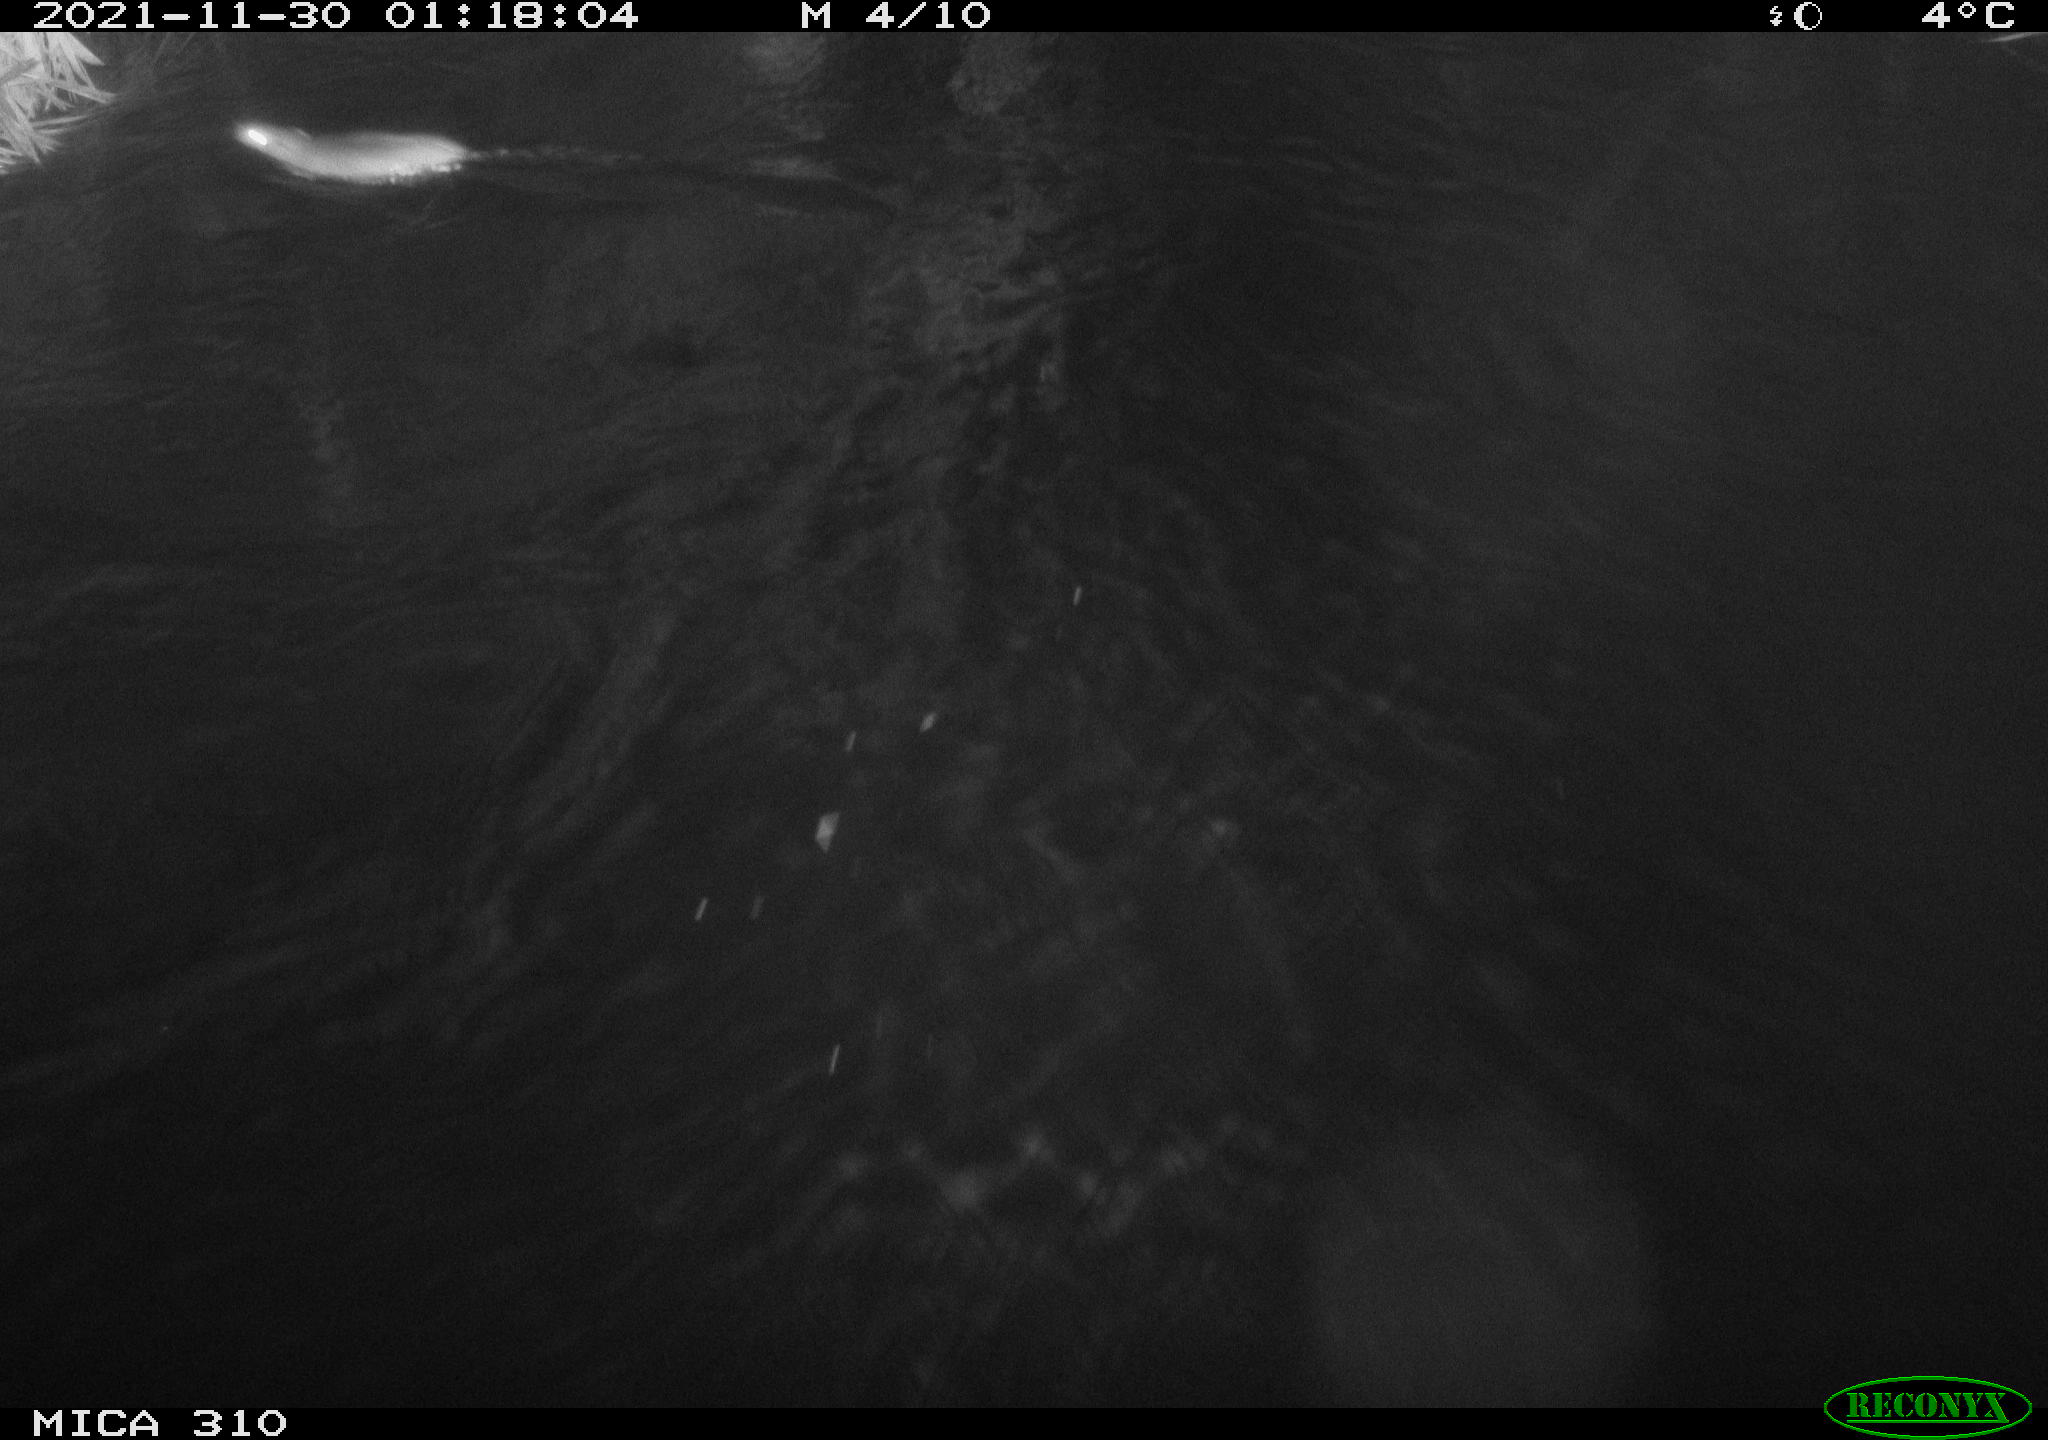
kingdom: Animalia
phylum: Chordata
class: Mammalia
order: Rodentia
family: Muridae
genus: Rattus
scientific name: Rattus norvegicus
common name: Brown rat
